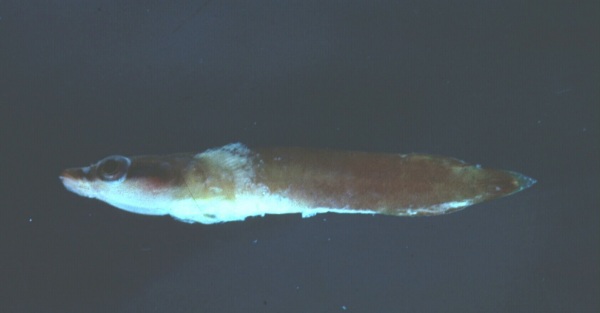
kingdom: Animalia
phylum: Chordata
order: Gobiesociformes
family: Gobiesocidae
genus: Lepadichthys
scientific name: Lepadichthys coccinotaenia
